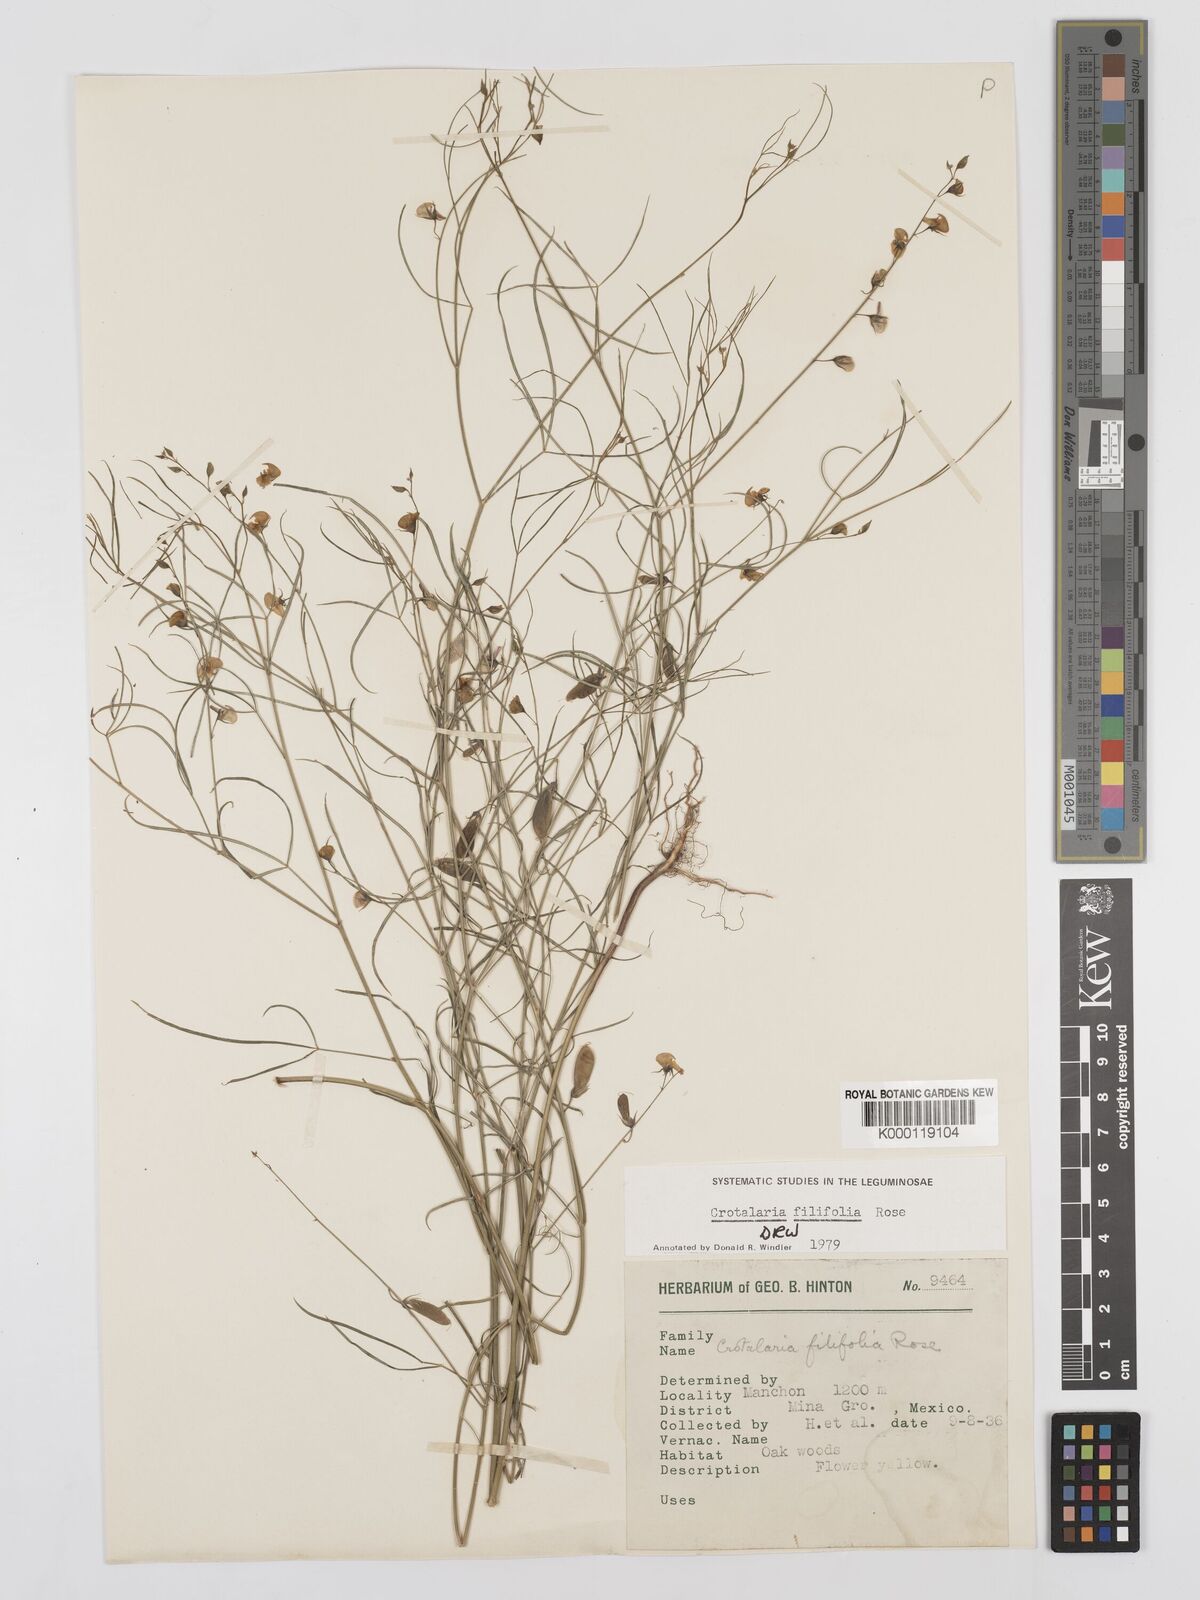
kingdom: Plantae
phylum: Tracheophyta
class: Magnoliopsida
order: Fabales
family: Fabaceae
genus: Crotalaria
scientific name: Crotalaria filifolia
